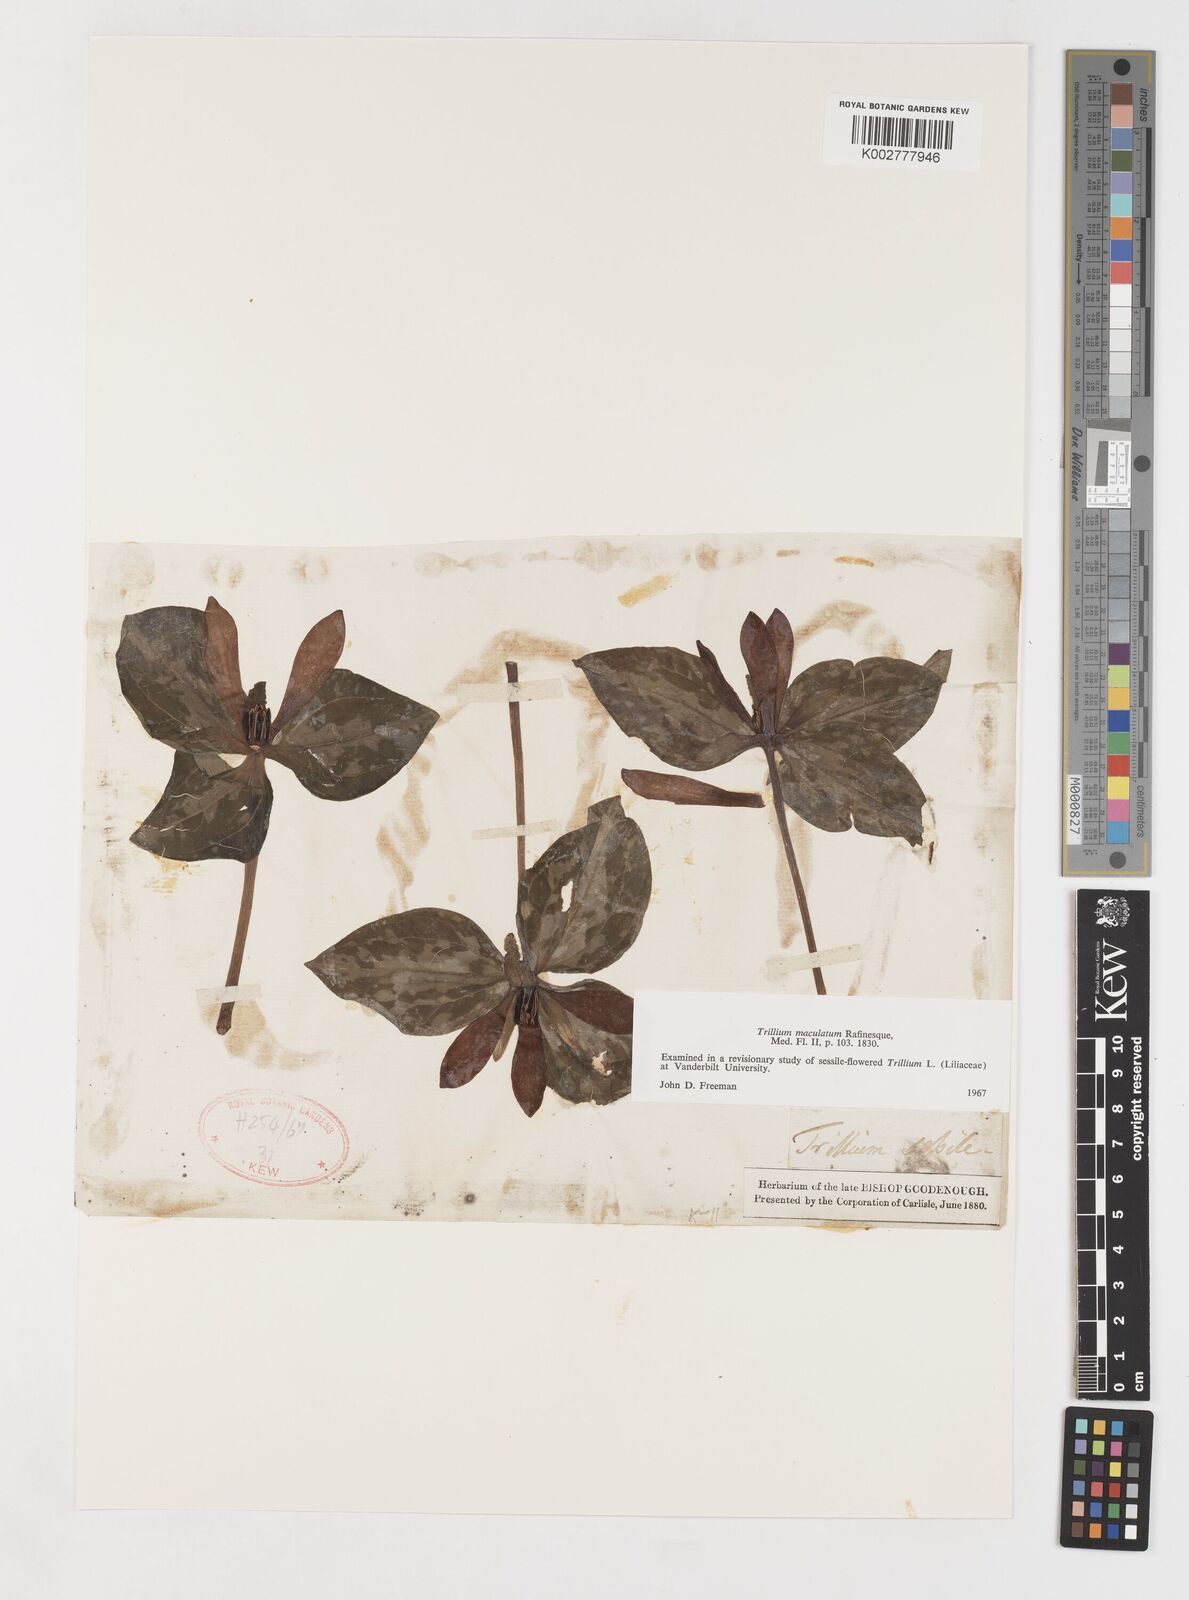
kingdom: Plantae
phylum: Tracheophyta
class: Liliopsida
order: Liliales
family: Melanthiaceae
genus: Trillium
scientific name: Trillium maculatum
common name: Mottled trillium
